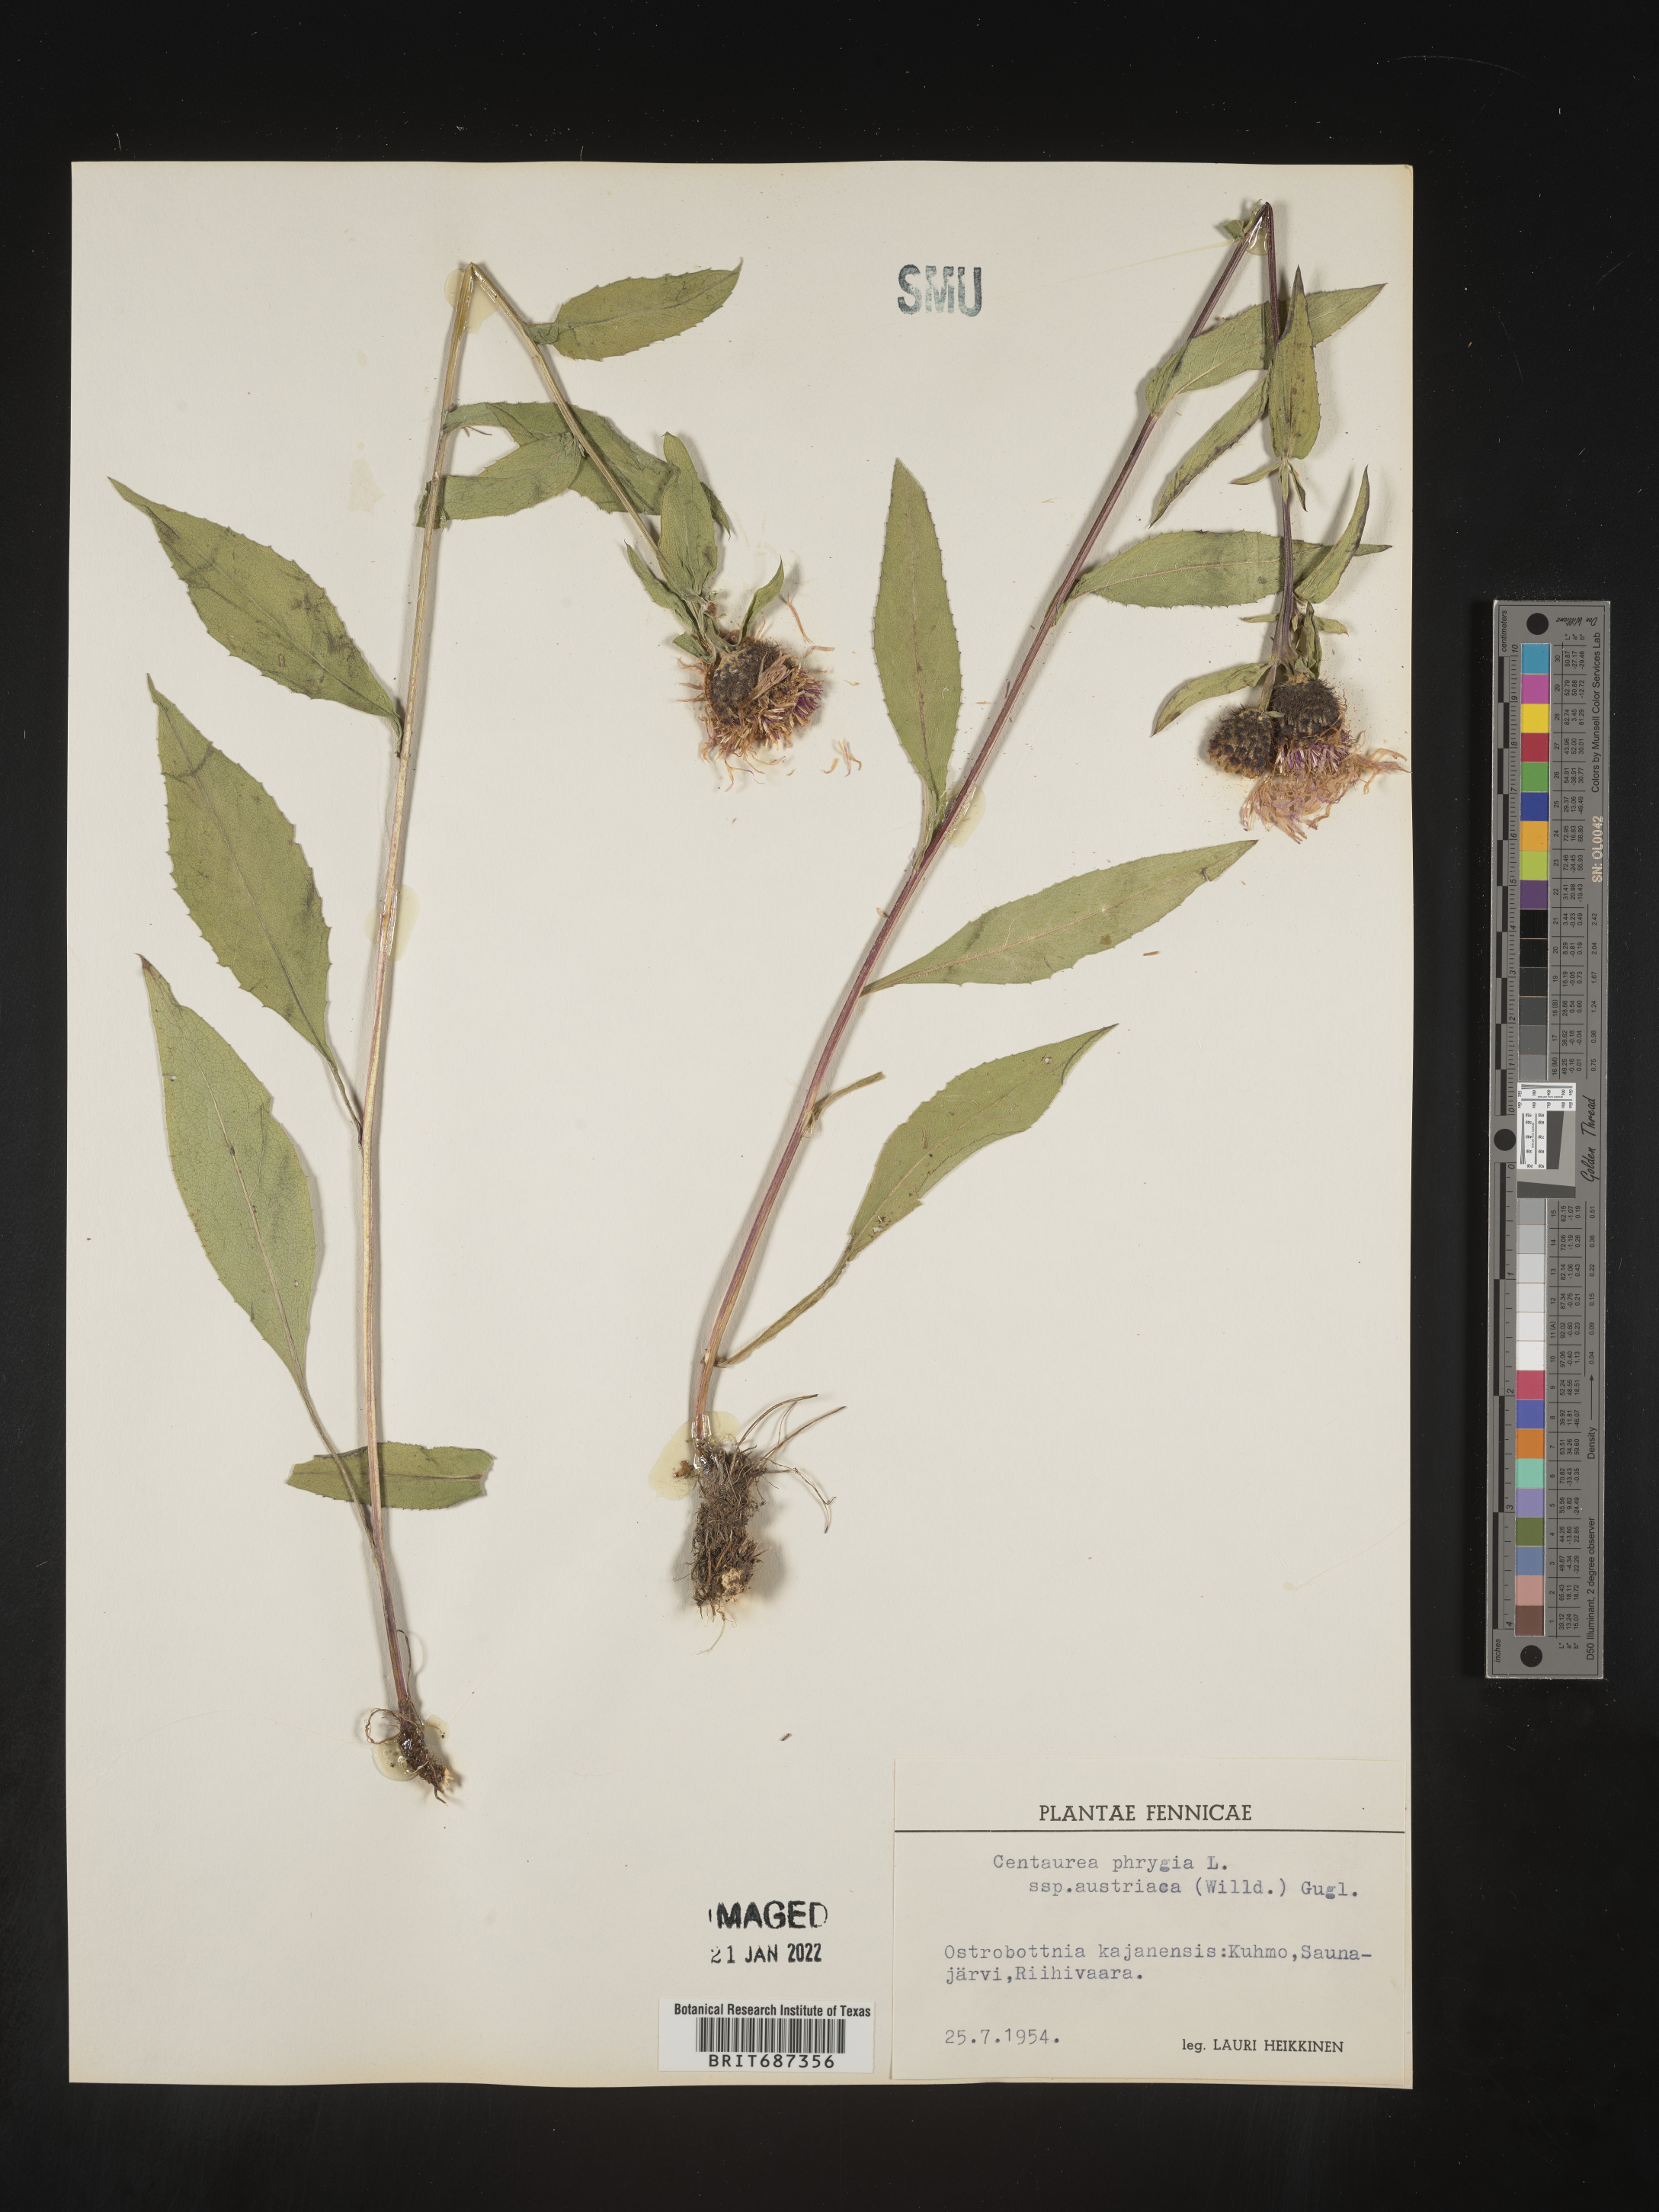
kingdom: Plantae
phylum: Tracheophyta
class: Magnoliopsida
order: Asterales
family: Asteraceae
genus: Centaurea
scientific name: Centaurea
